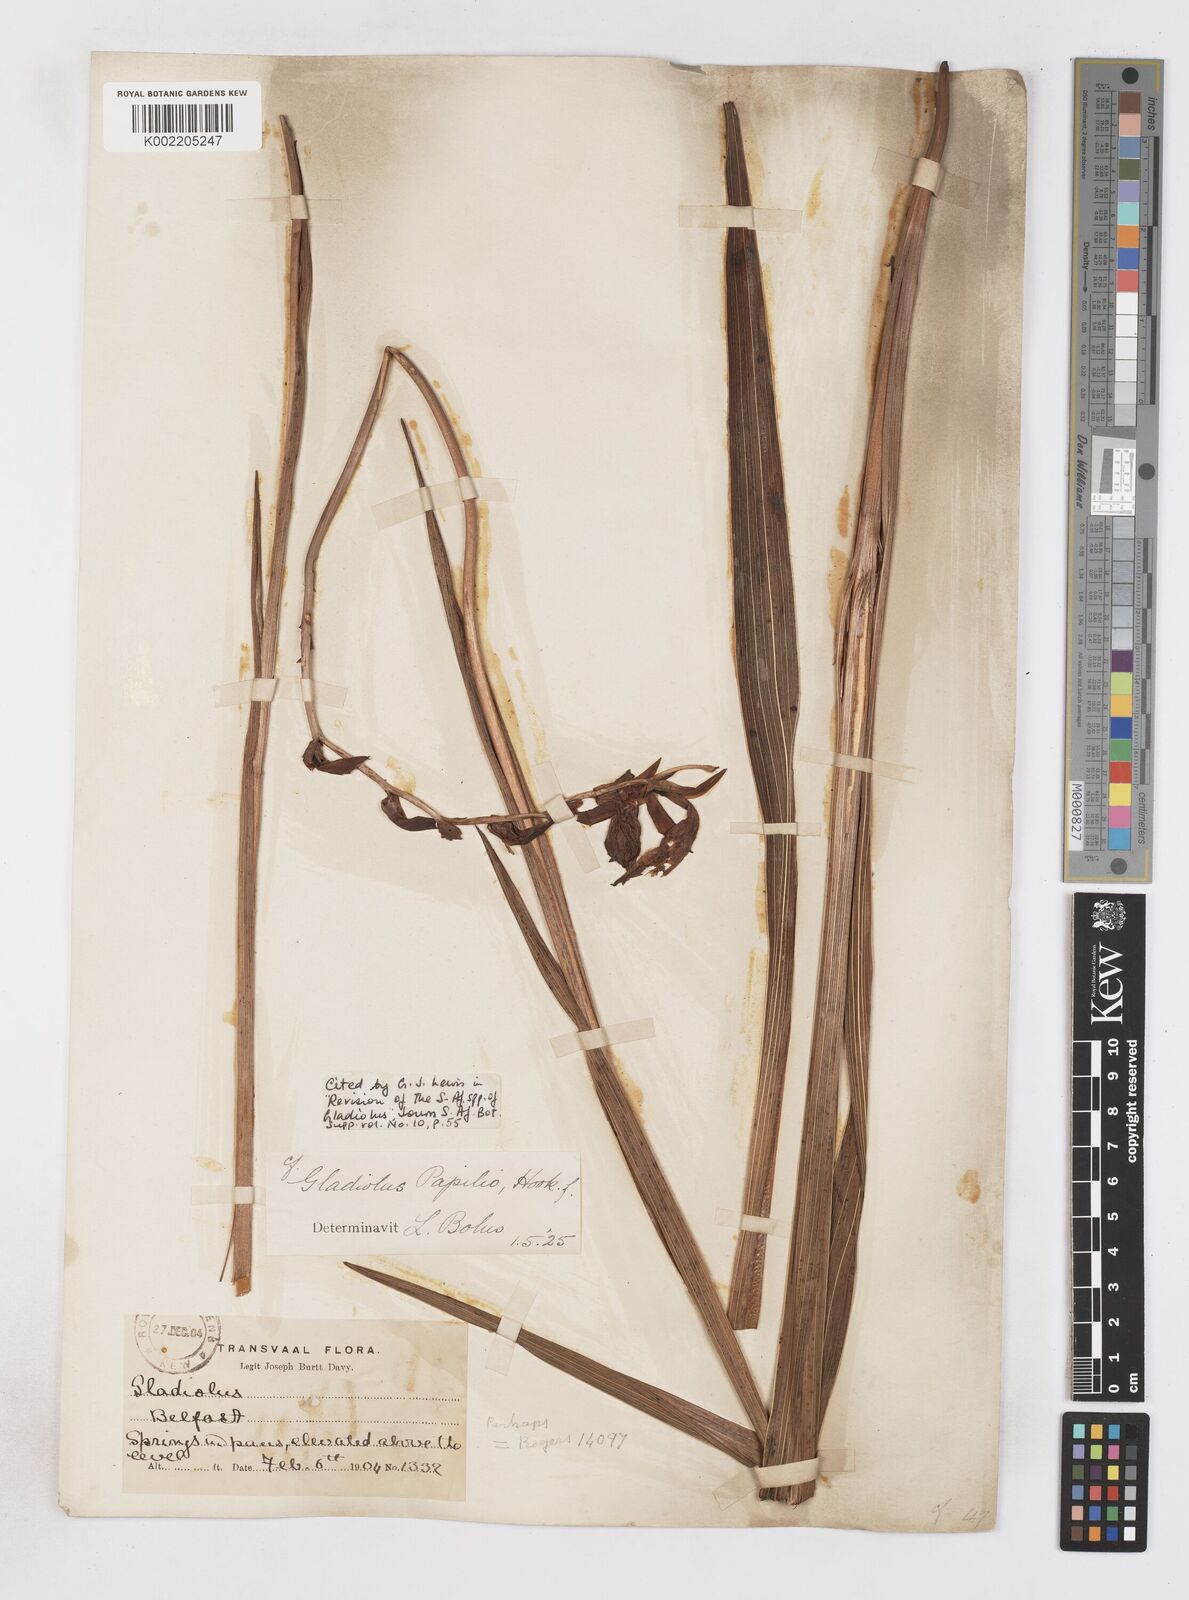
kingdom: Plantae
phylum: Tracheophyta
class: Liliopsida
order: Asparagales
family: Iridaceae
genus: Gladiolus
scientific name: Gladiolus papilio
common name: Goldblotch gladiolus
